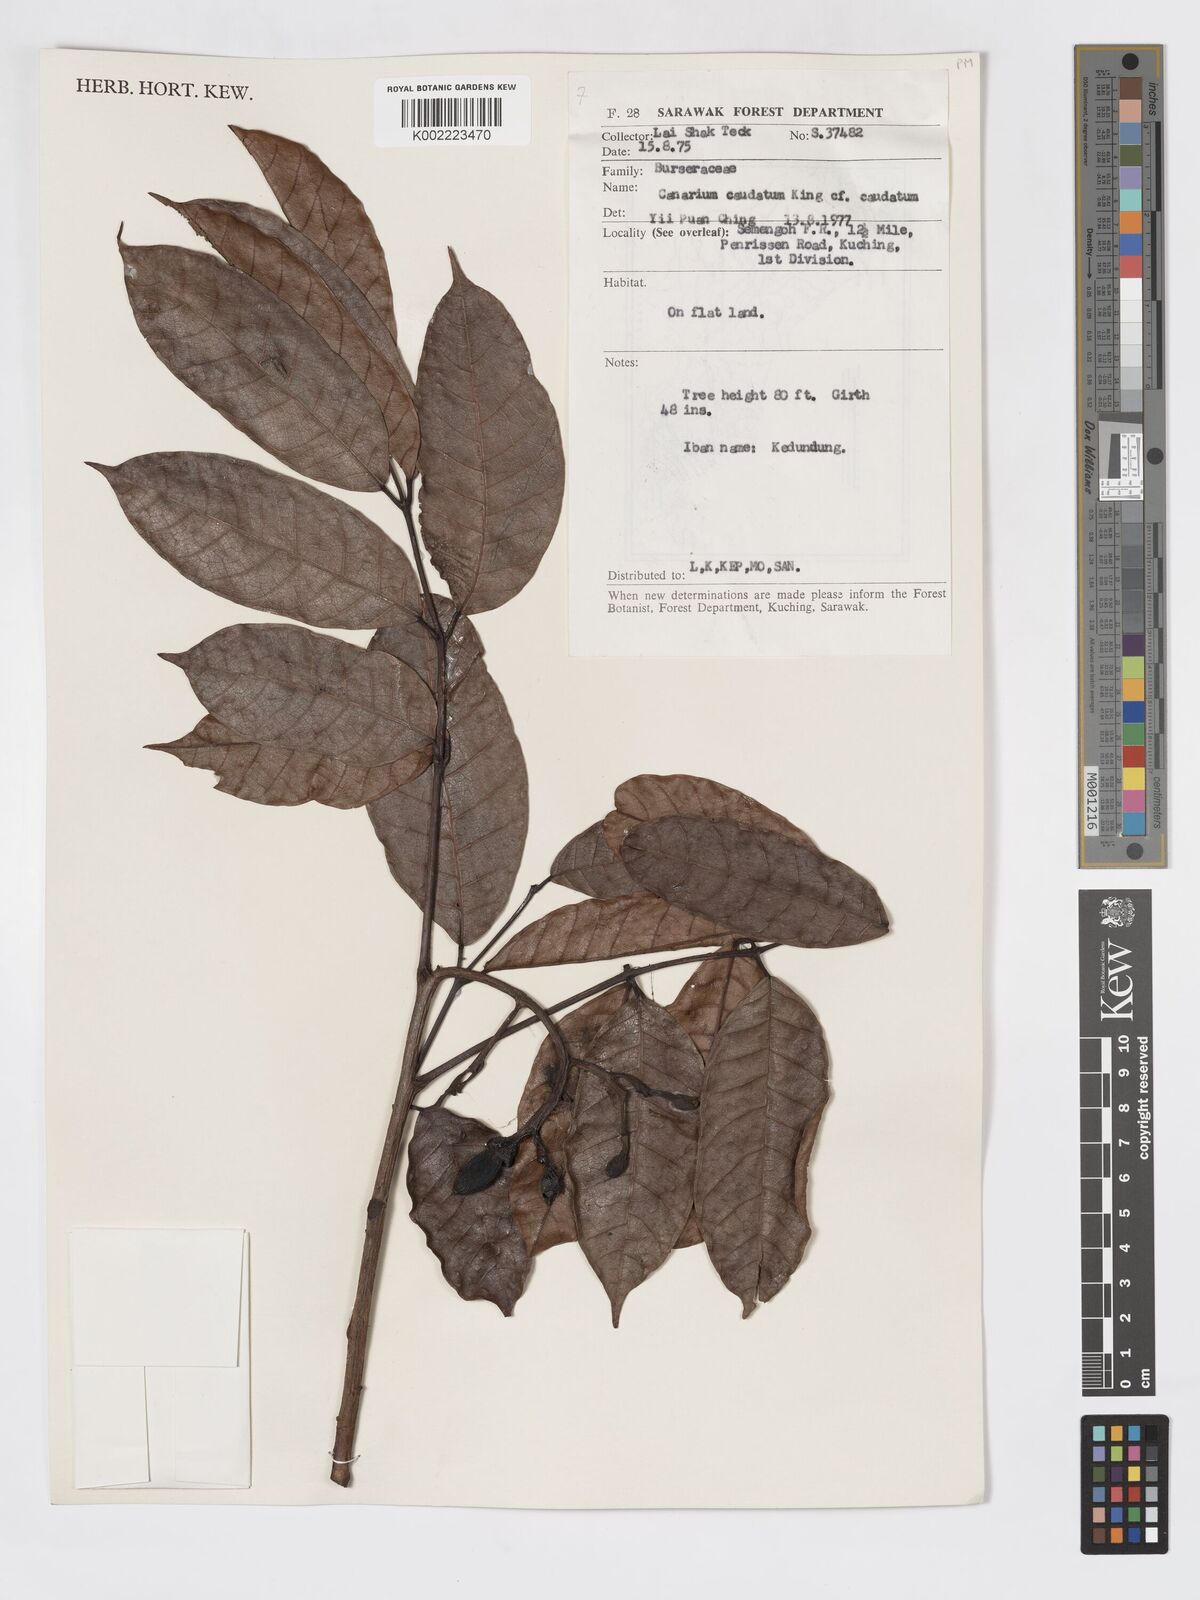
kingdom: Plantae
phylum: Tracheophyta
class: Magnoliopsida
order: Sapindales
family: Burseraceae
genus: Canarium
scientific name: Canarium caudatum
